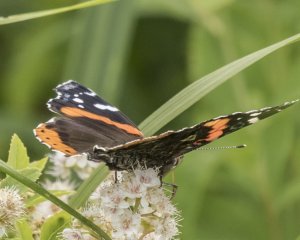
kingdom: Animalia
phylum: Arthropoda
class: Insecta
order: Lepidoptera
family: Nymphalidae
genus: Vanessa
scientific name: Vanessa atalanta
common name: Red Admiral
